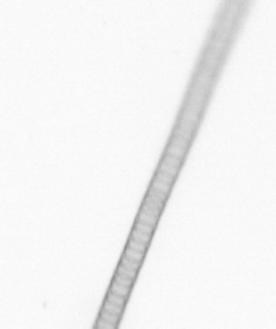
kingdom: Chromista
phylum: Ochrophyta
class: Bacillariophyceae
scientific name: Bacillariophyceae
